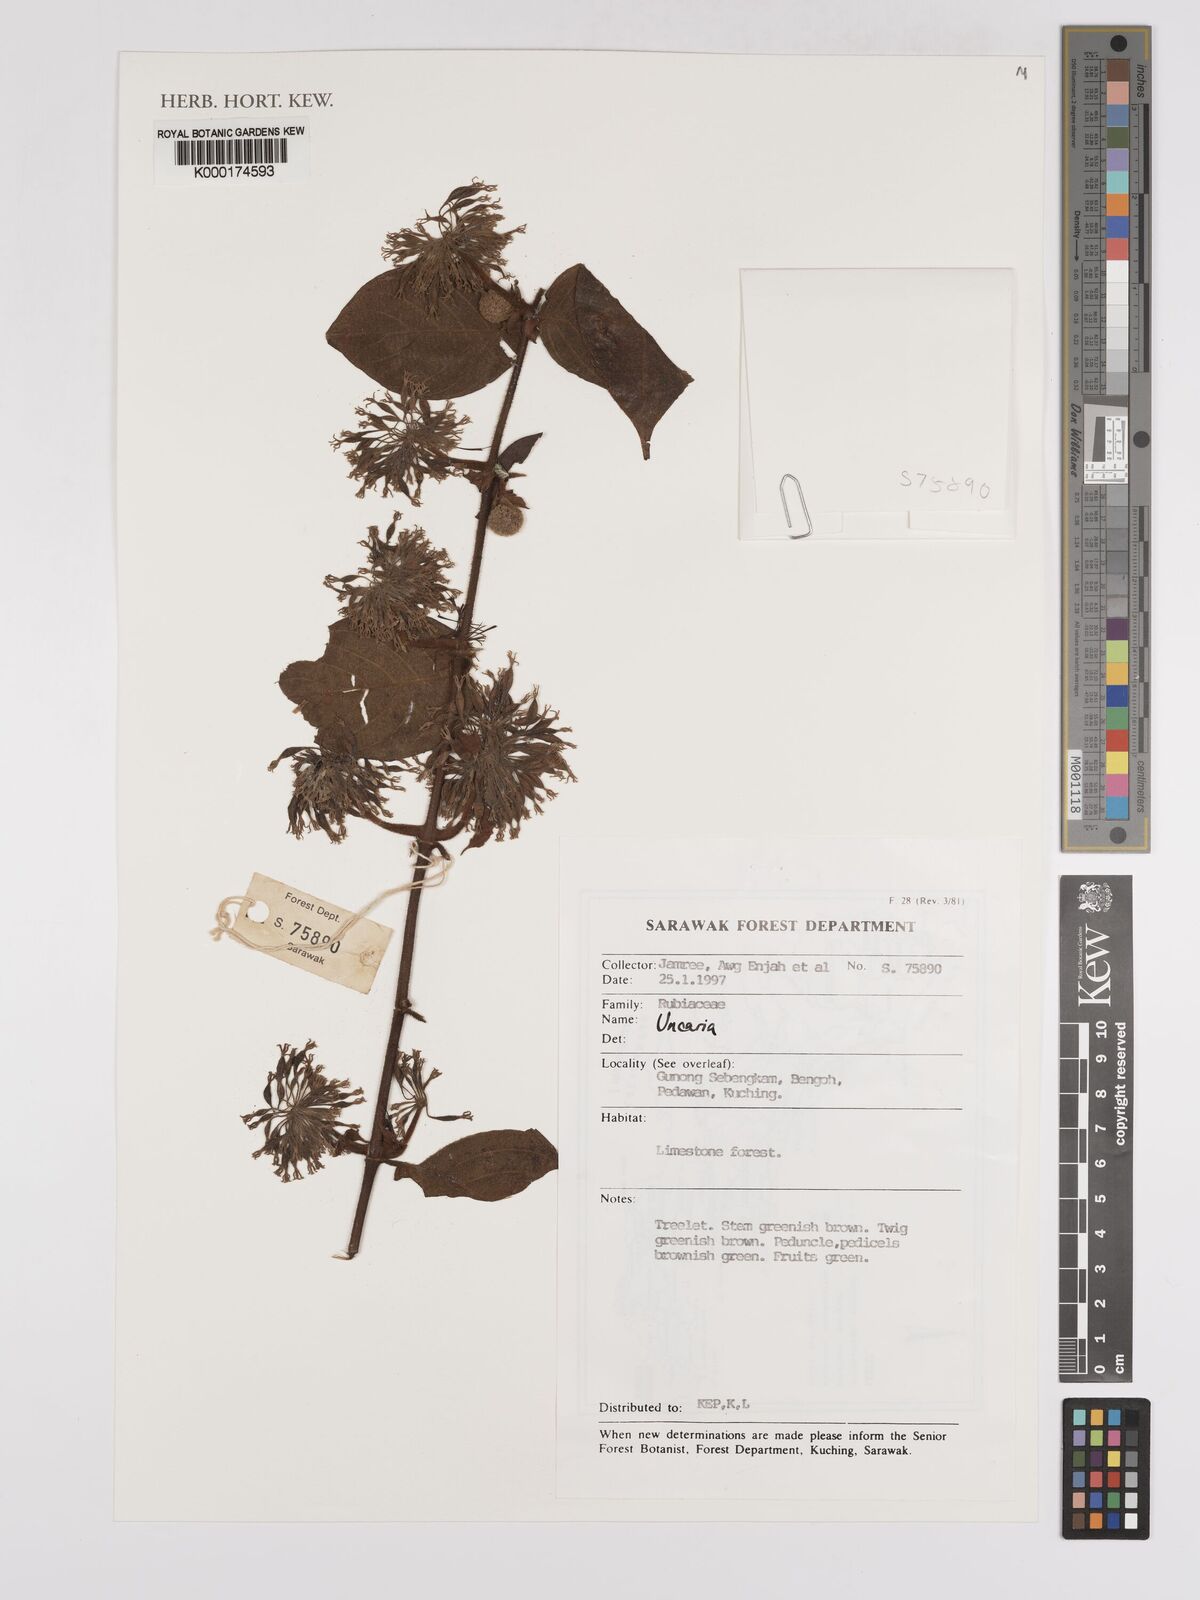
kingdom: Plantae
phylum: Tracheophyta
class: Magnoliopsida
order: Gentianales
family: Rubiaceae
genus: Uncaria
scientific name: Uncaria
